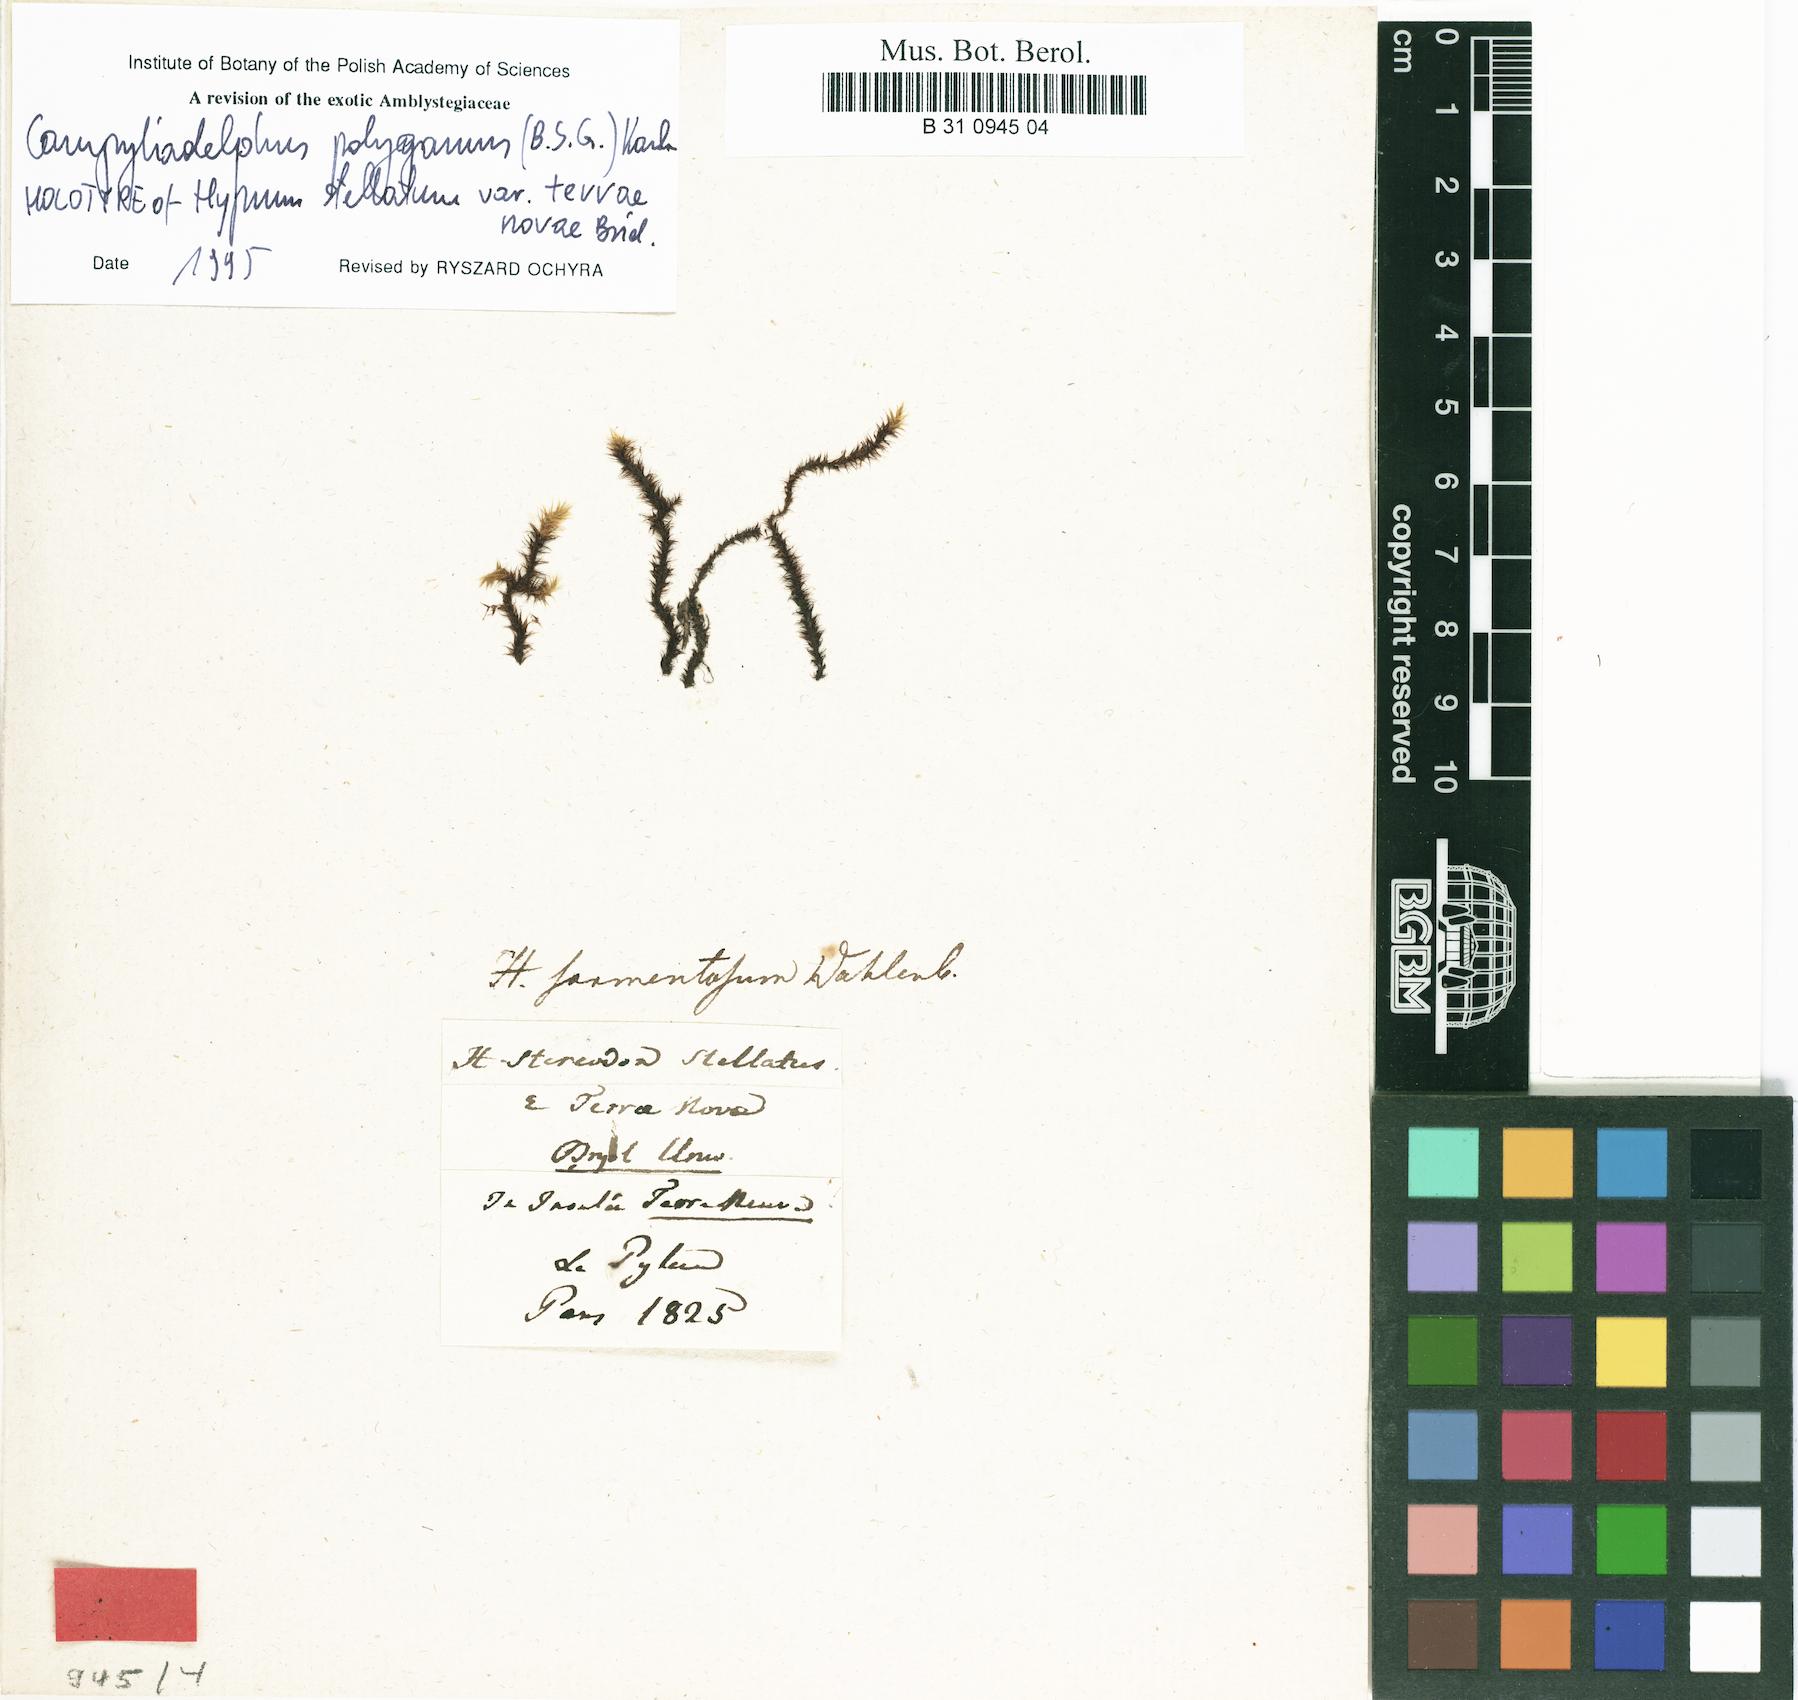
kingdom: Plantae
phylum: Bryophyta
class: Bryopsida
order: Hypnales
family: Amblystegiaceae
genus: Campylium
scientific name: Campylium stellatum
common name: Yellow starry fen moss
